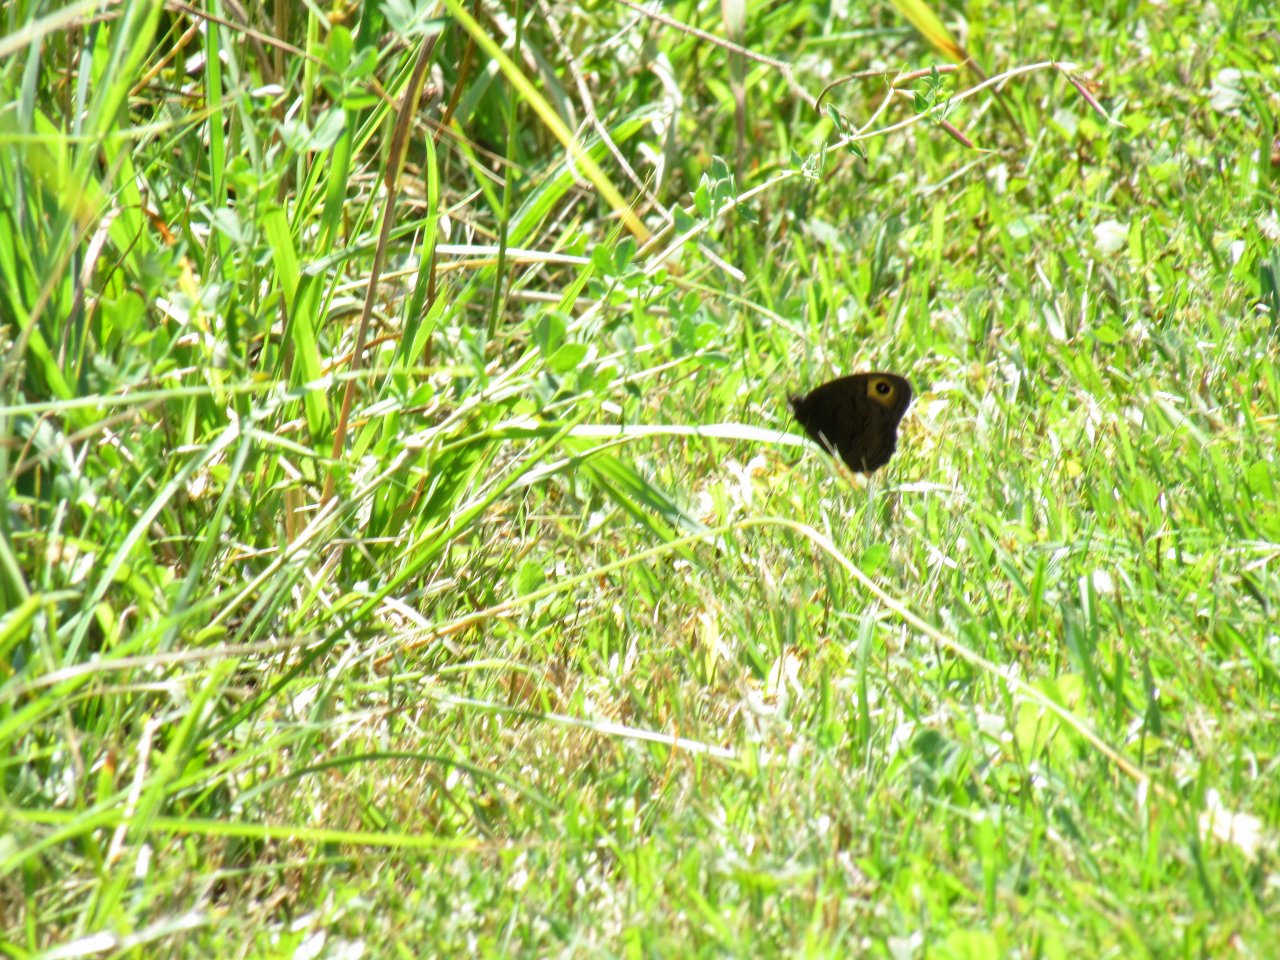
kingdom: Animalia
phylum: Arthropoda
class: Insecta
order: Lepidoptera
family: Nymphalidae
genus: Cercyonis
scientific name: Cercyonis pegala
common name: Common Wood-Nymph
